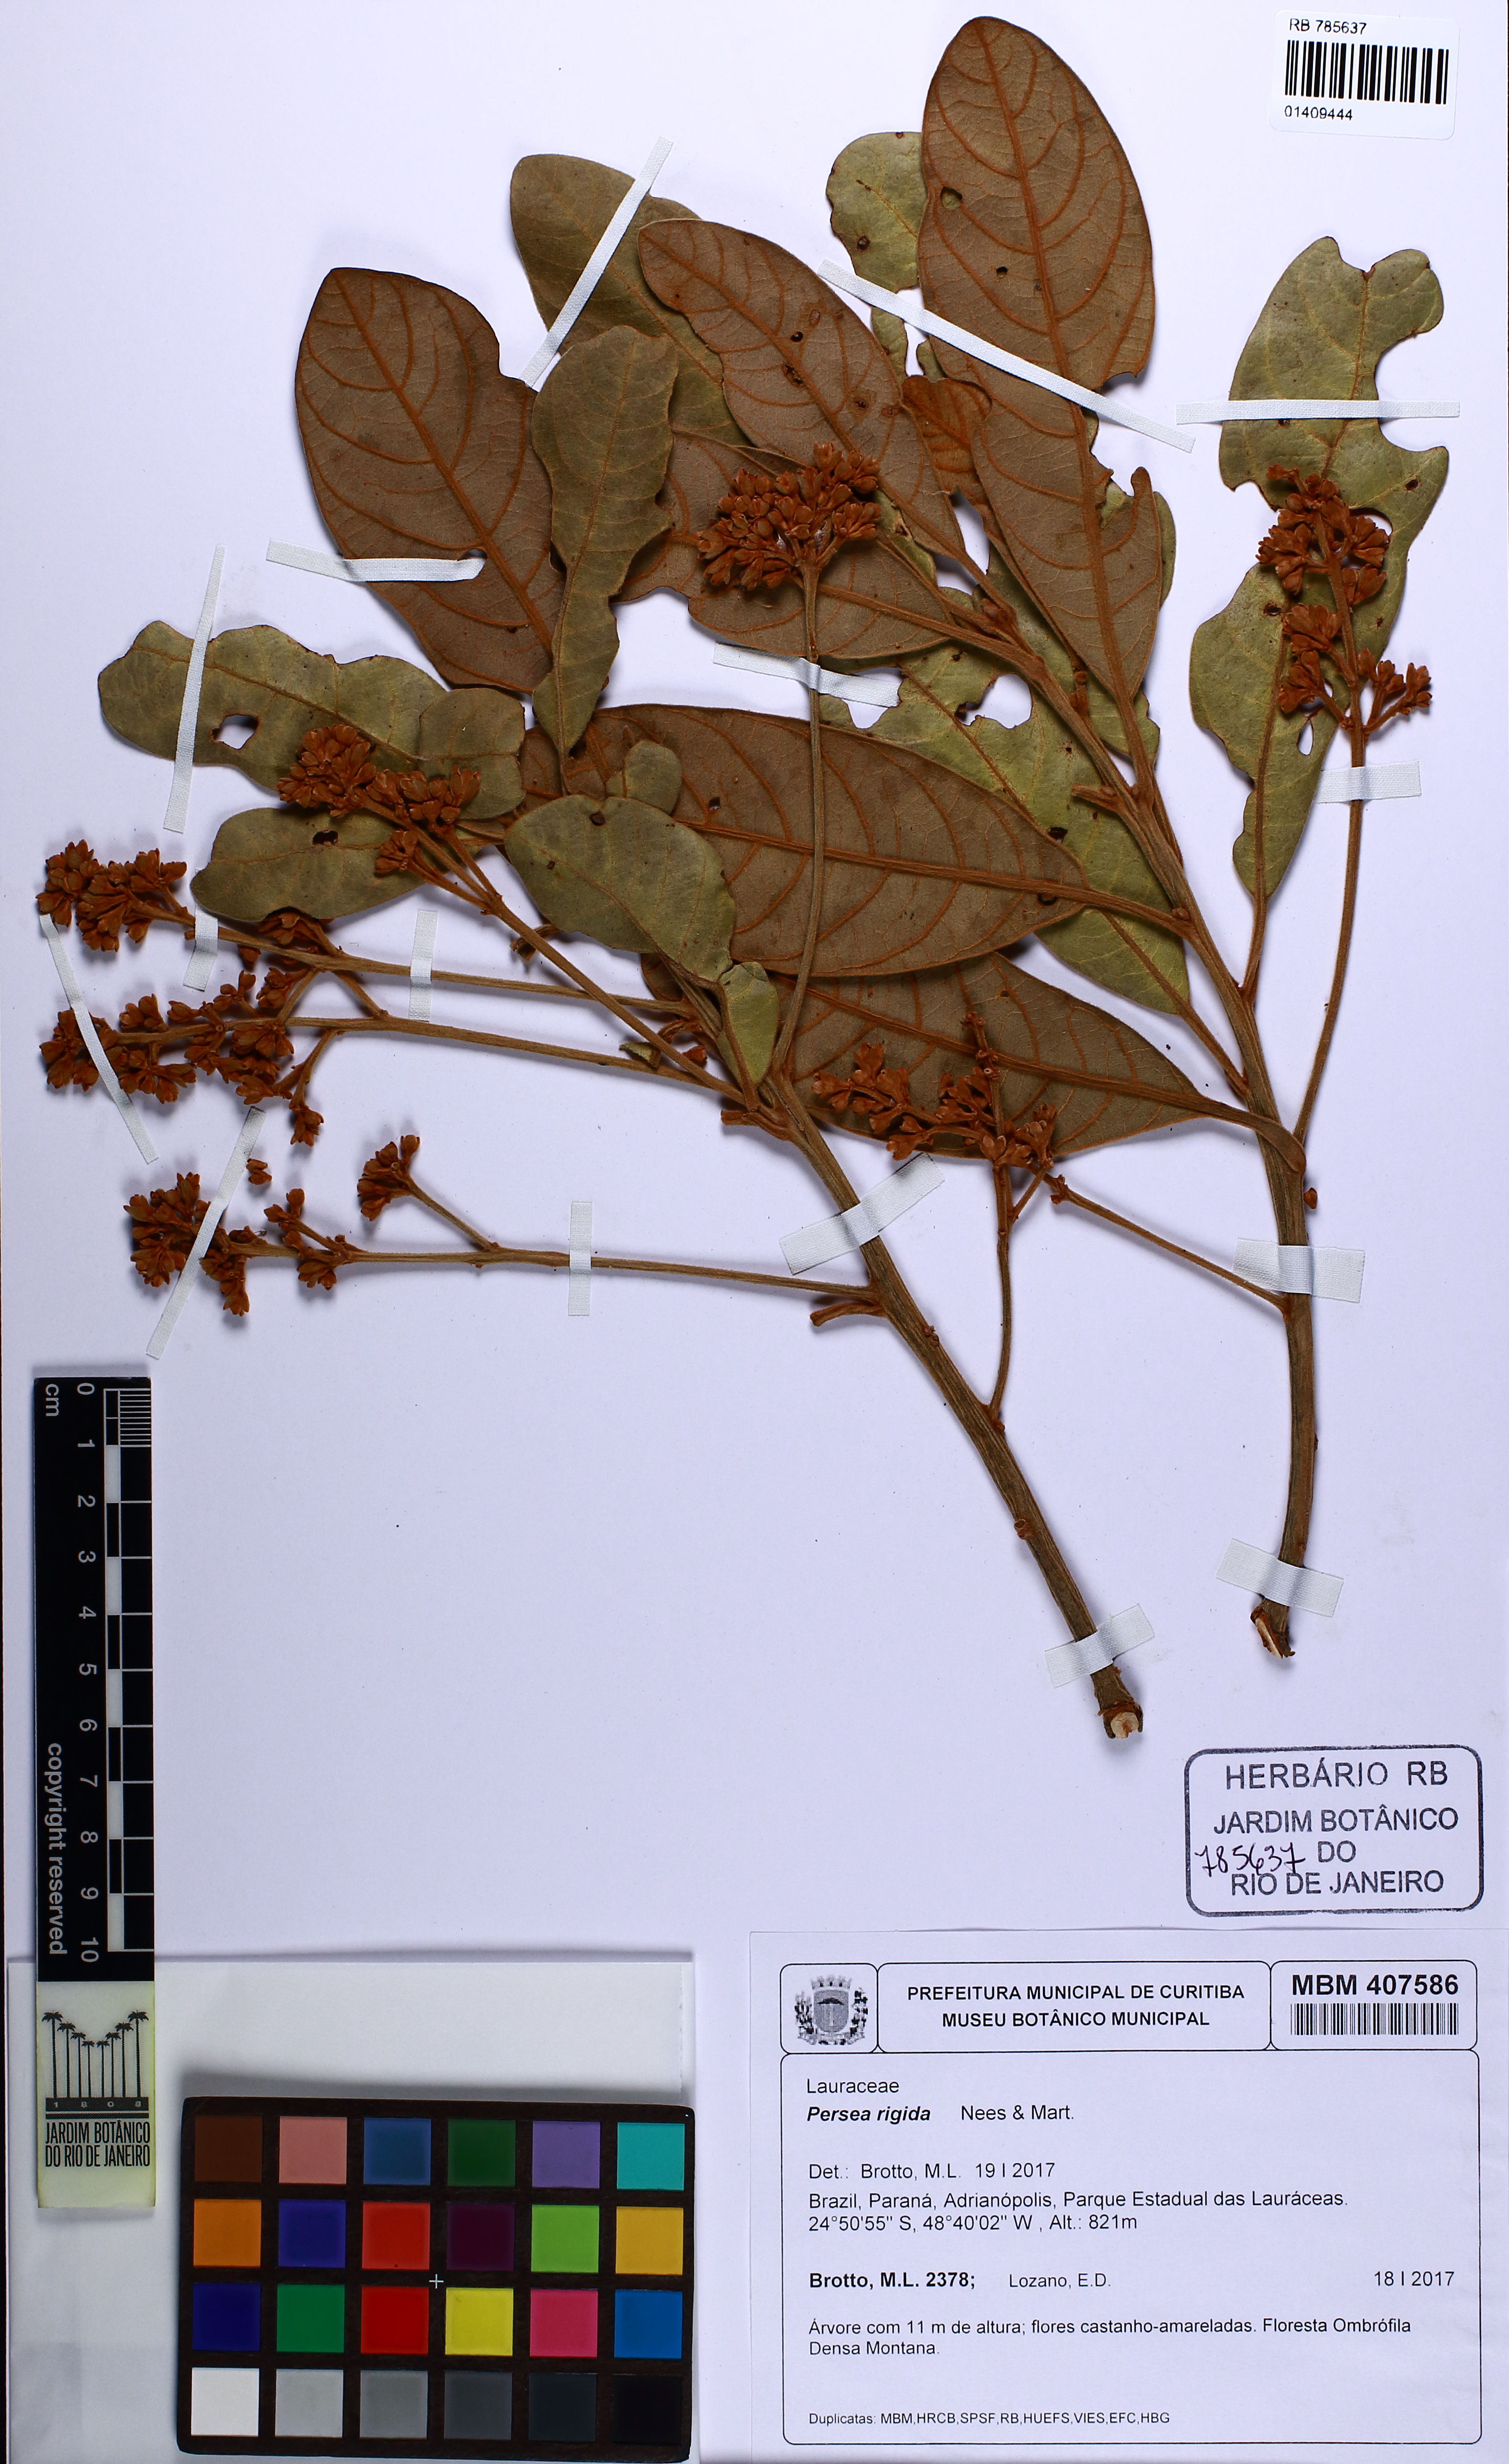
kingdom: Plantae
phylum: Tracheophyta
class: Magnoliopsida
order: Laurales
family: Lauraceae
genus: Persea
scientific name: Persea rigida
